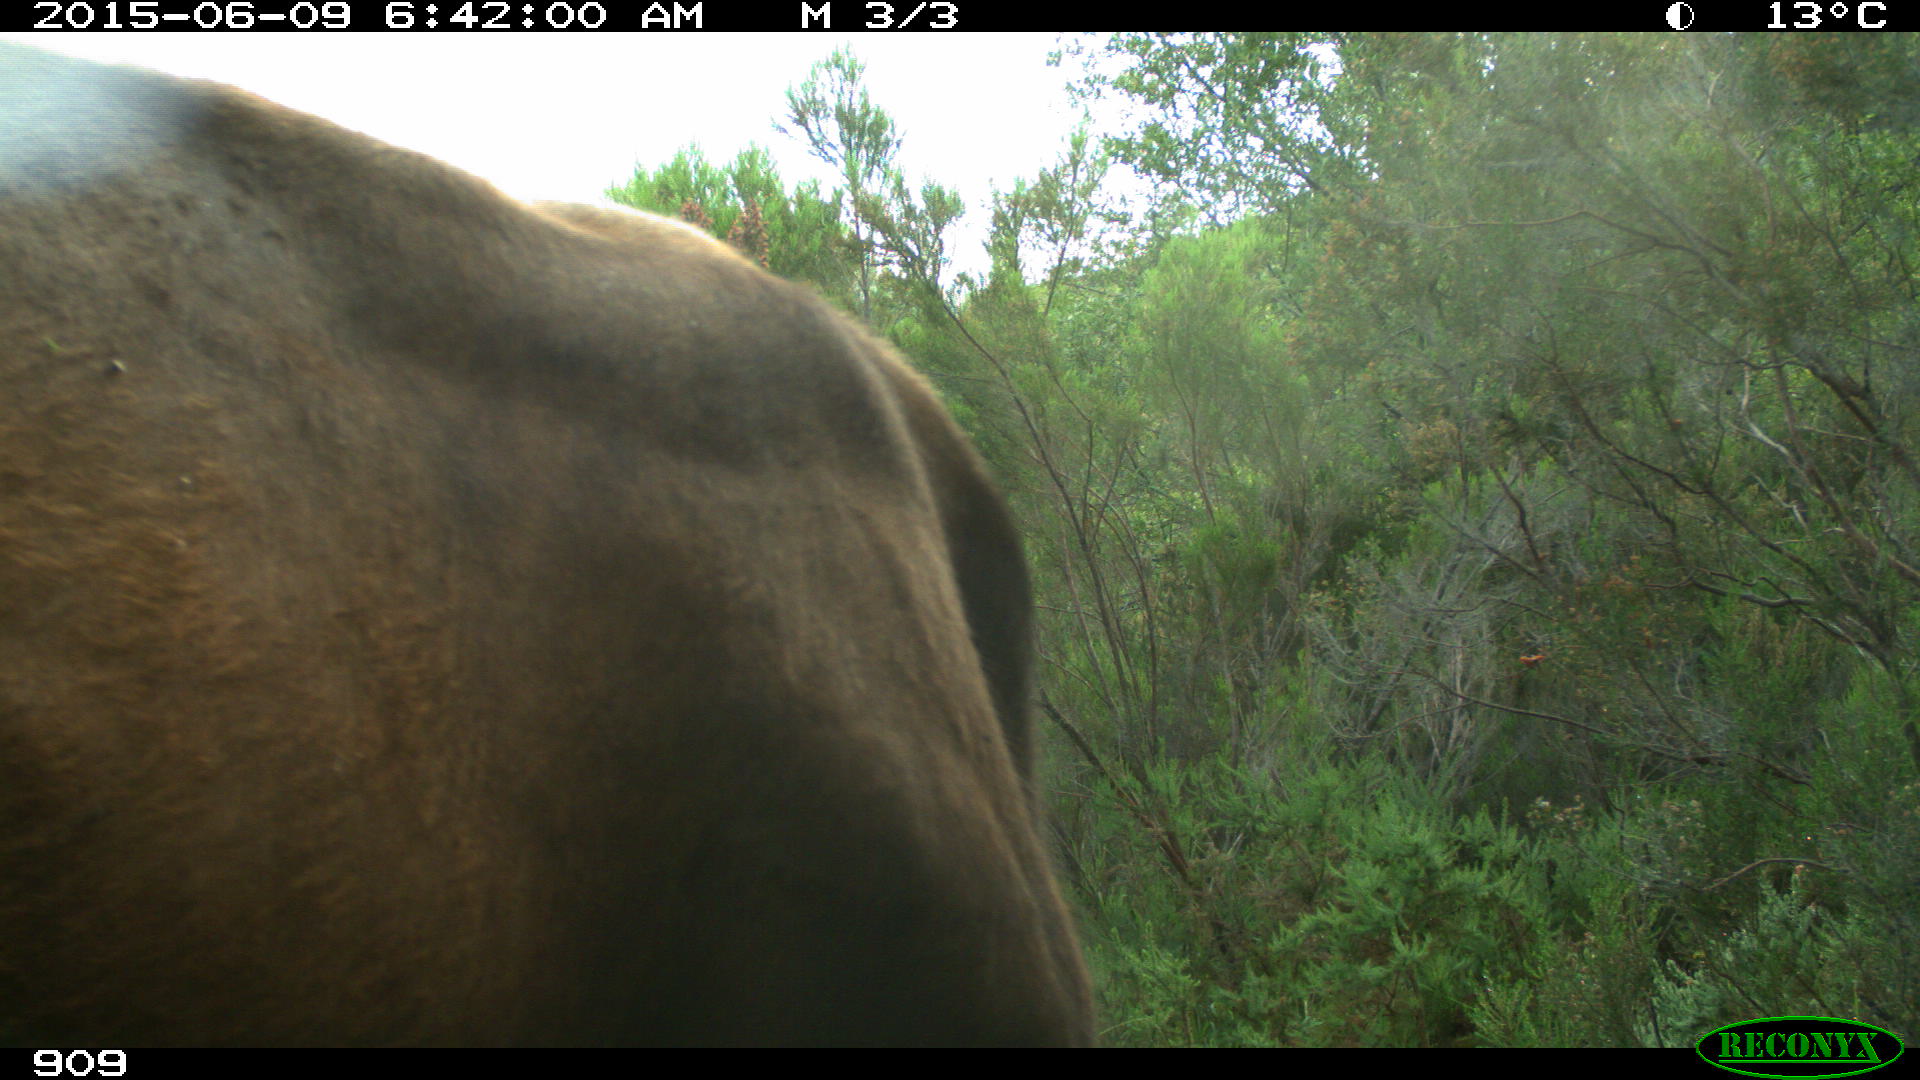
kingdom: Animalia
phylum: Chordata
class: Mammalia
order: Artiodactyla
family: Bovidae
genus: Bos
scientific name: Bos taurus
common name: Domesticated cattle
